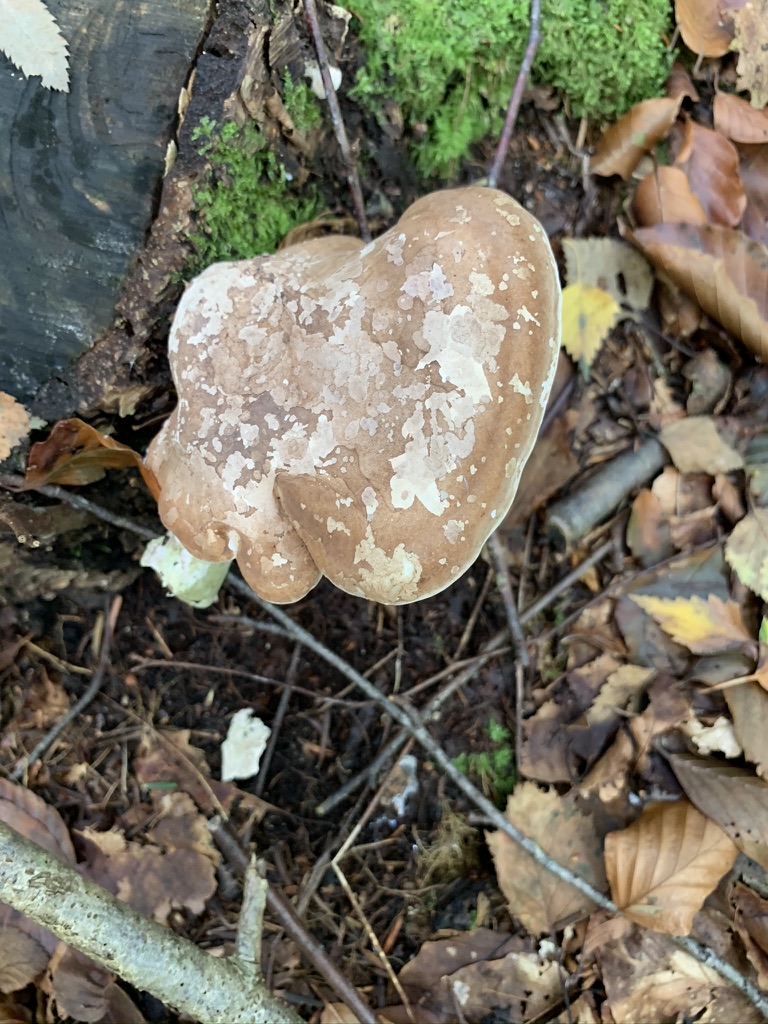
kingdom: Fungi
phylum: Basidiomycota
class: Agaricomycetes
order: Polyporales
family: Fomitopsidaceae
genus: Fomitopsis
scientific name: Fomitopsis betulina
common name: birkeporesvamp
